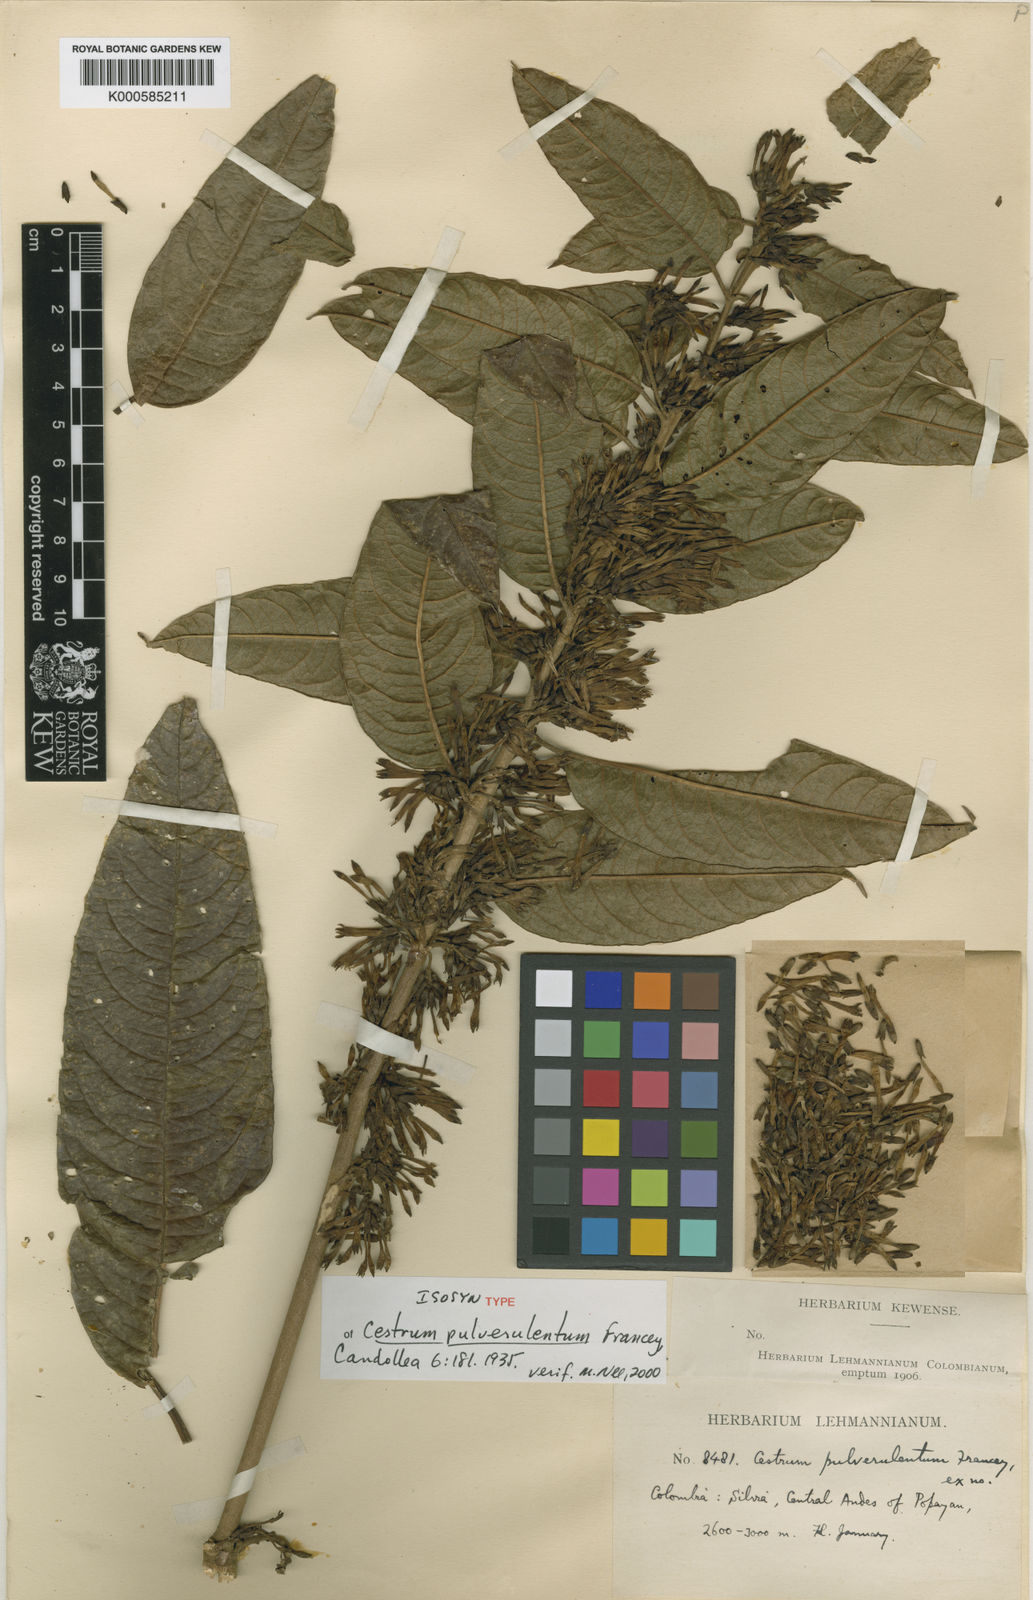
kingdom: Plantae
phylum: Tracheophyta
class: Magnoliopsida
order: Solanales
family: Solanaceae
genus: Cestrum
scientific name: Cestrum pulverulentum
